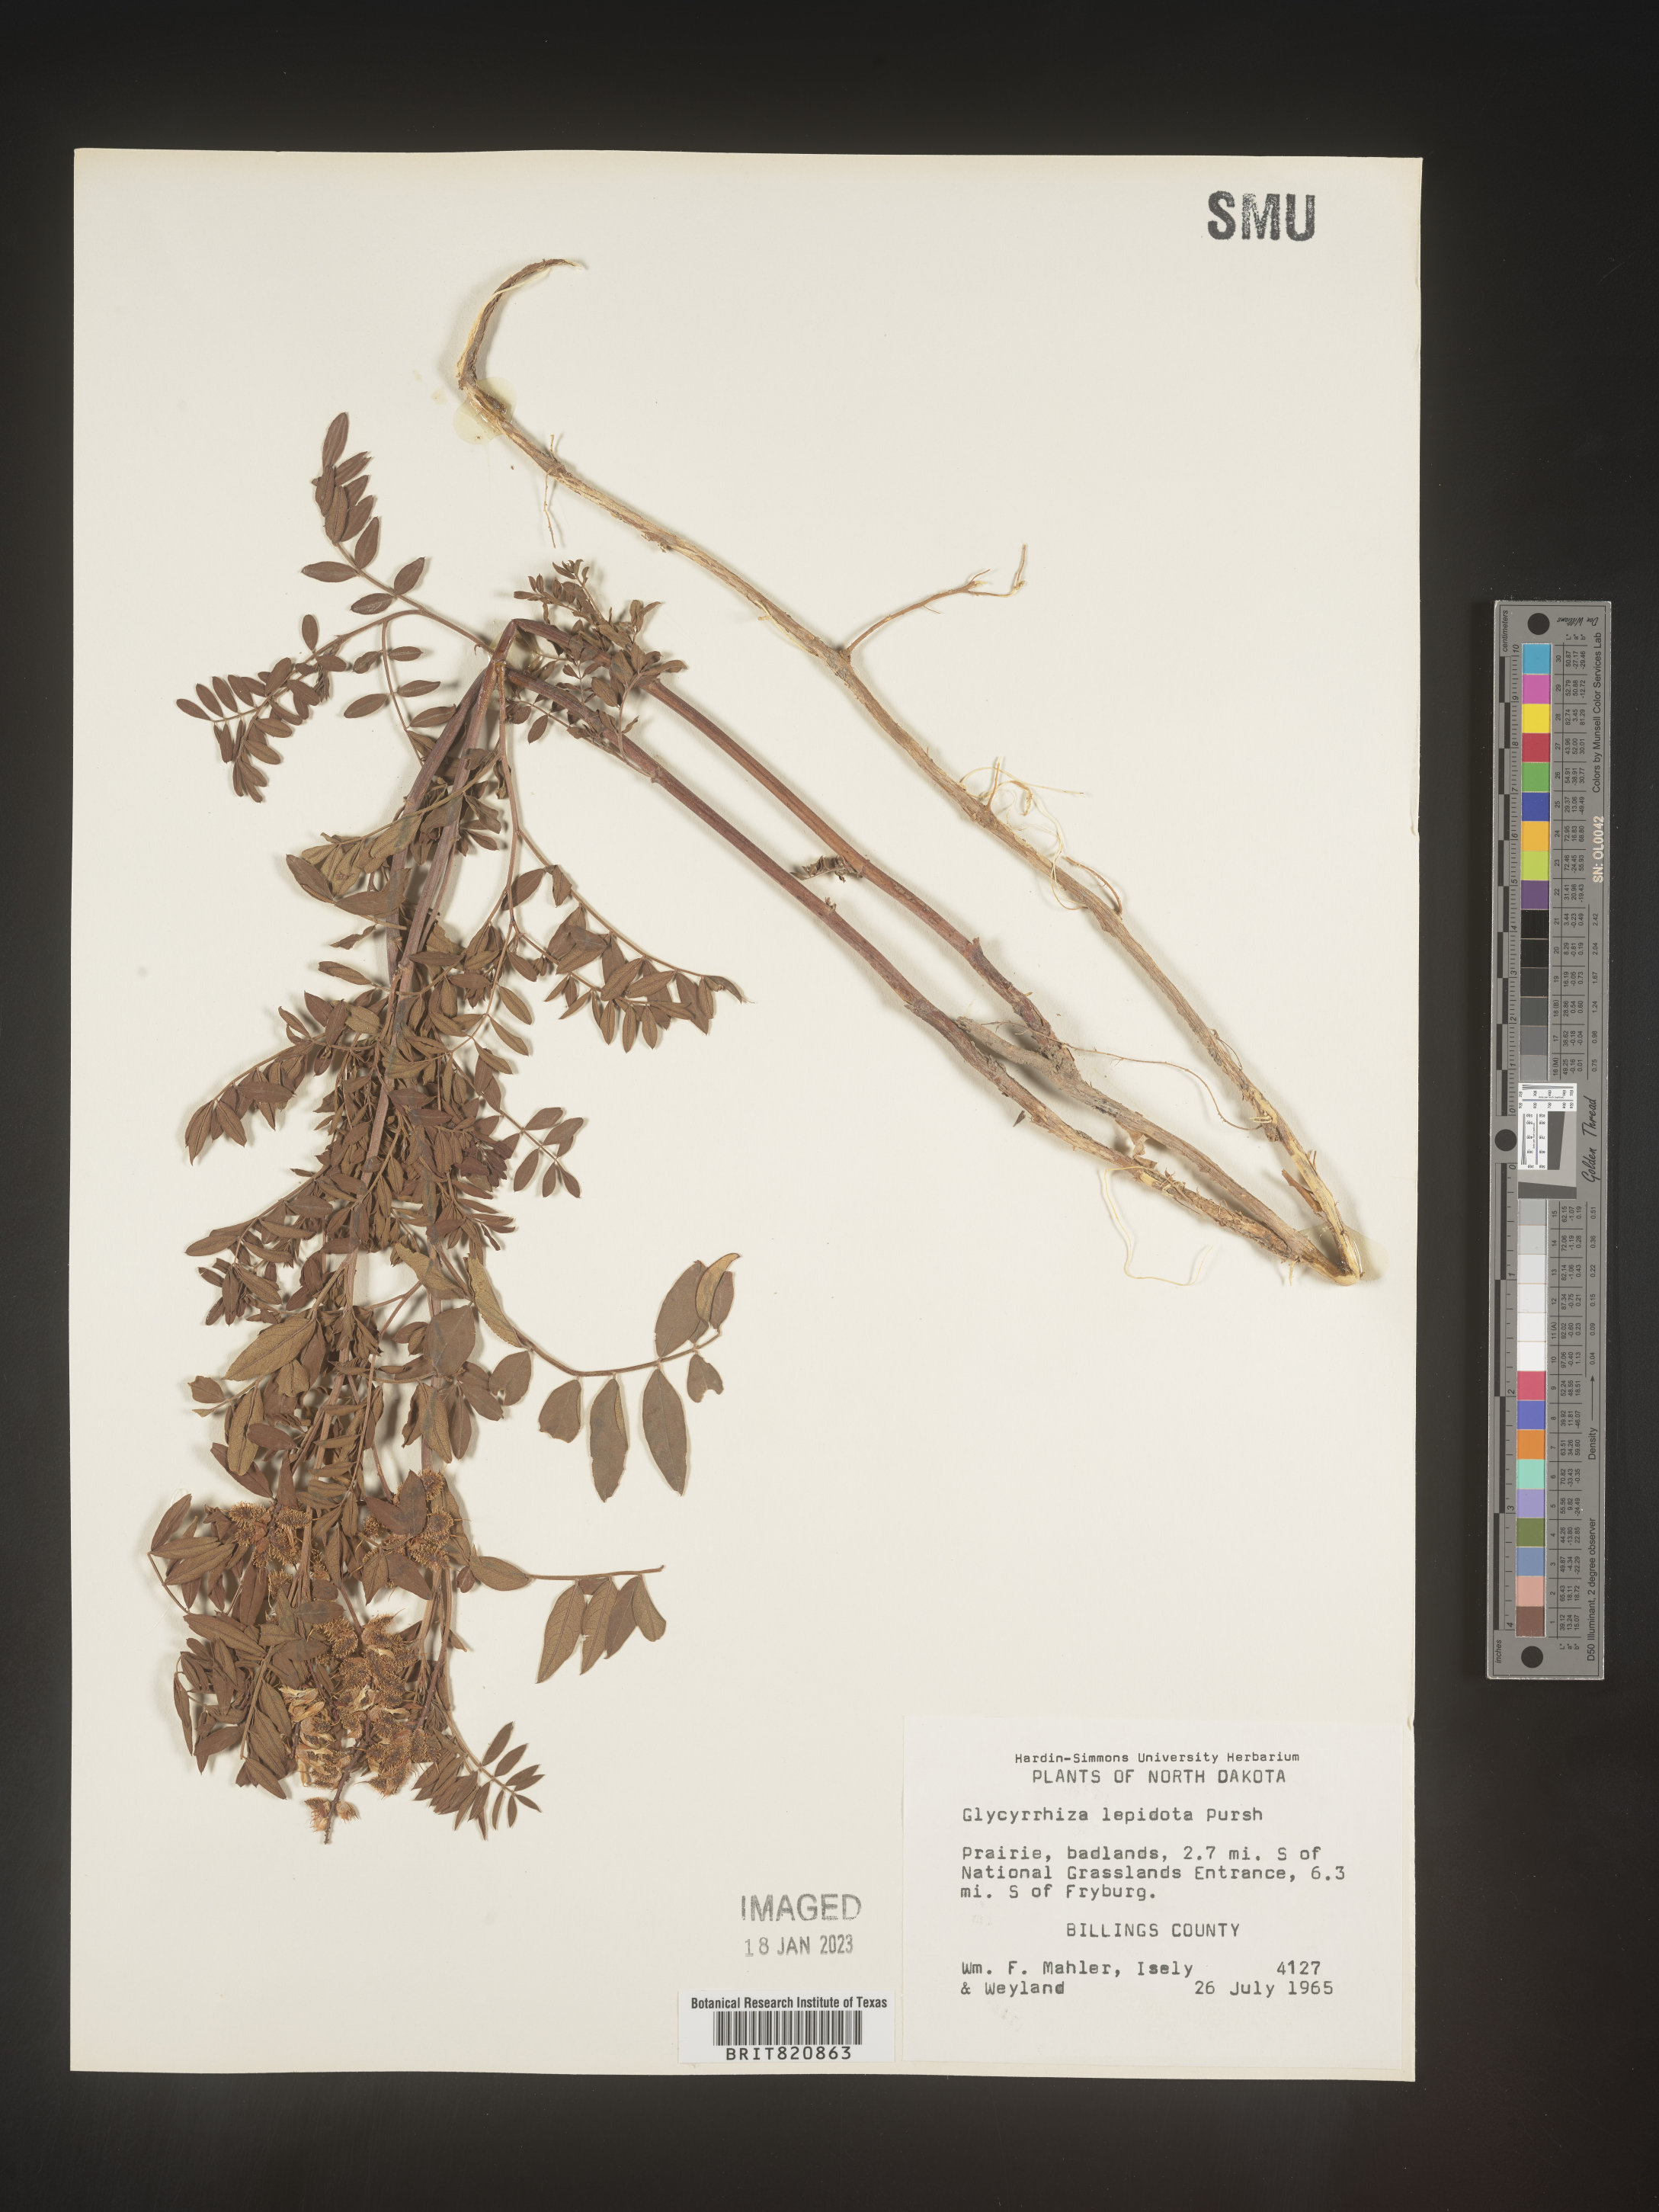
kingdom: Plantae
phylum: Tracheophyta
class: Magnoliopsida
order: Fabales
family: Fabaceae
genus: Glycyrrhiza
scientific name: Glycyrrhiza lepidota
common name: American liquorice
